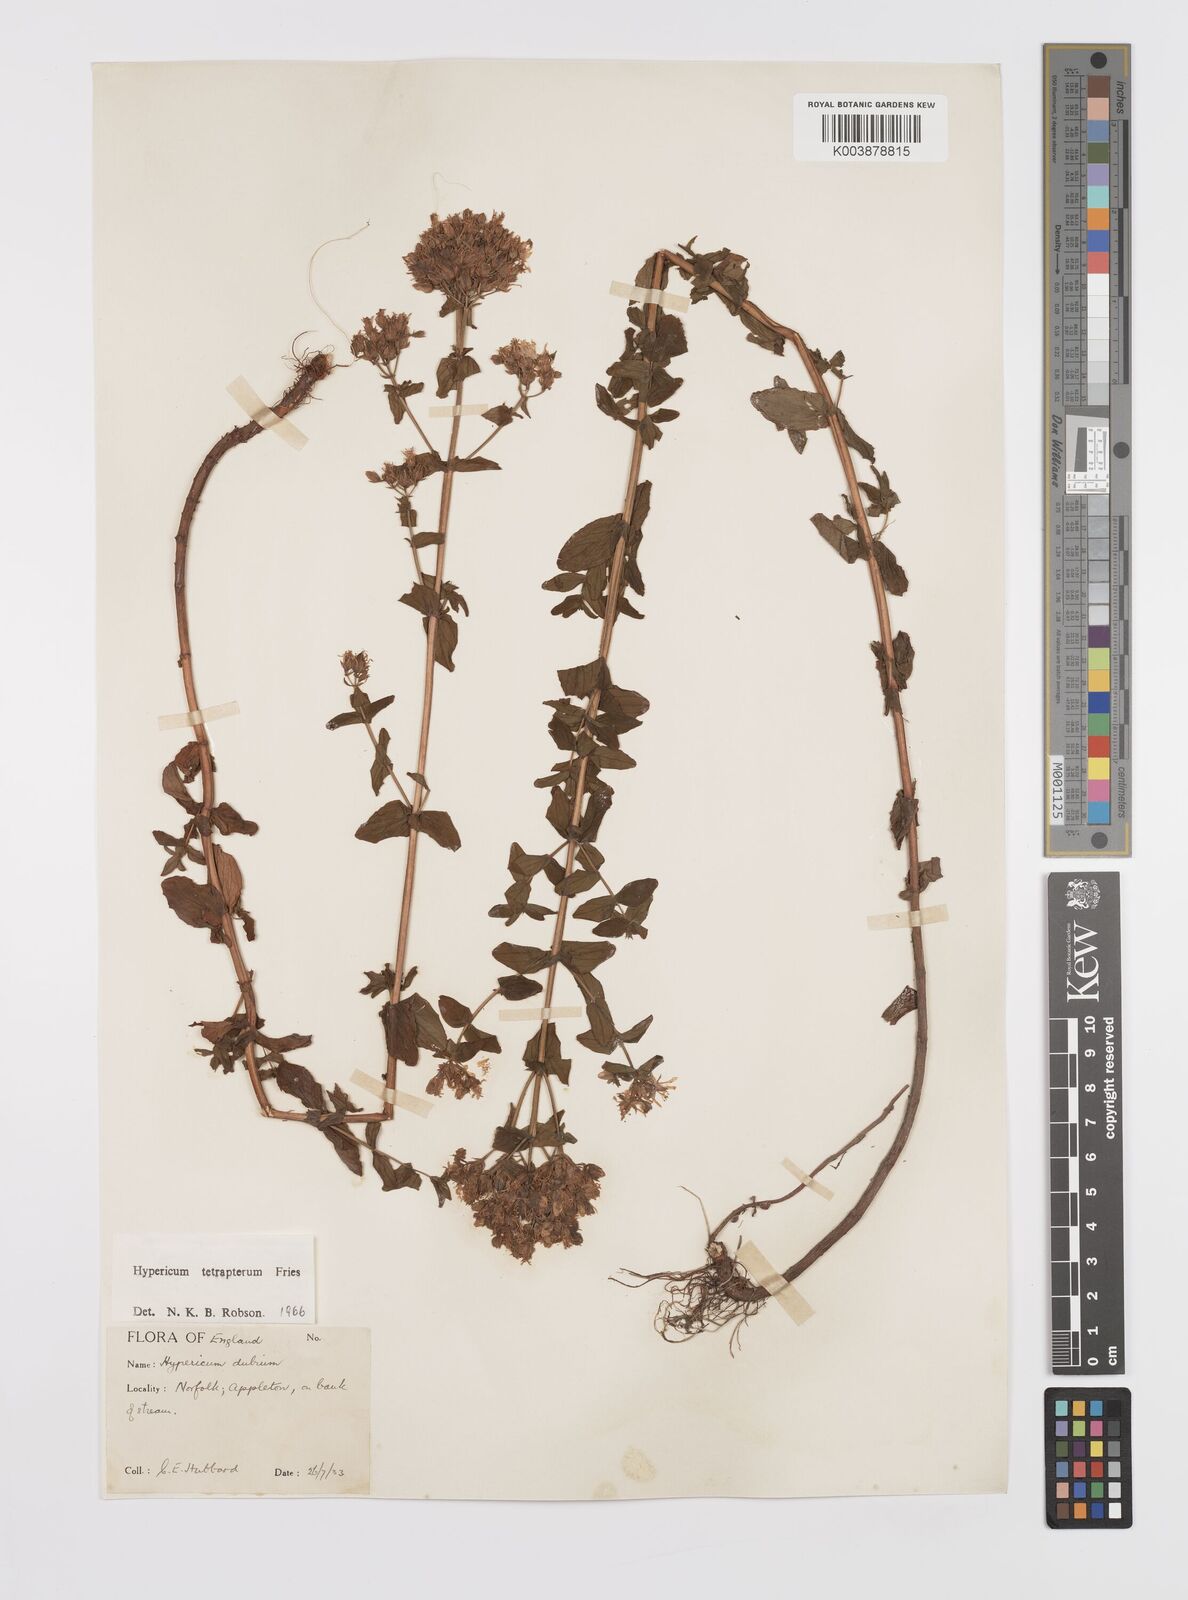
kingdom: Plantae
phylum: Tracheophyta
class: Magnoliopsida
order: Malpighiales
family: Hypericaceae
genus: Hypericum
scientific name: Hypericum tetrapterum
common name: Square-stalked st. john's-wort
